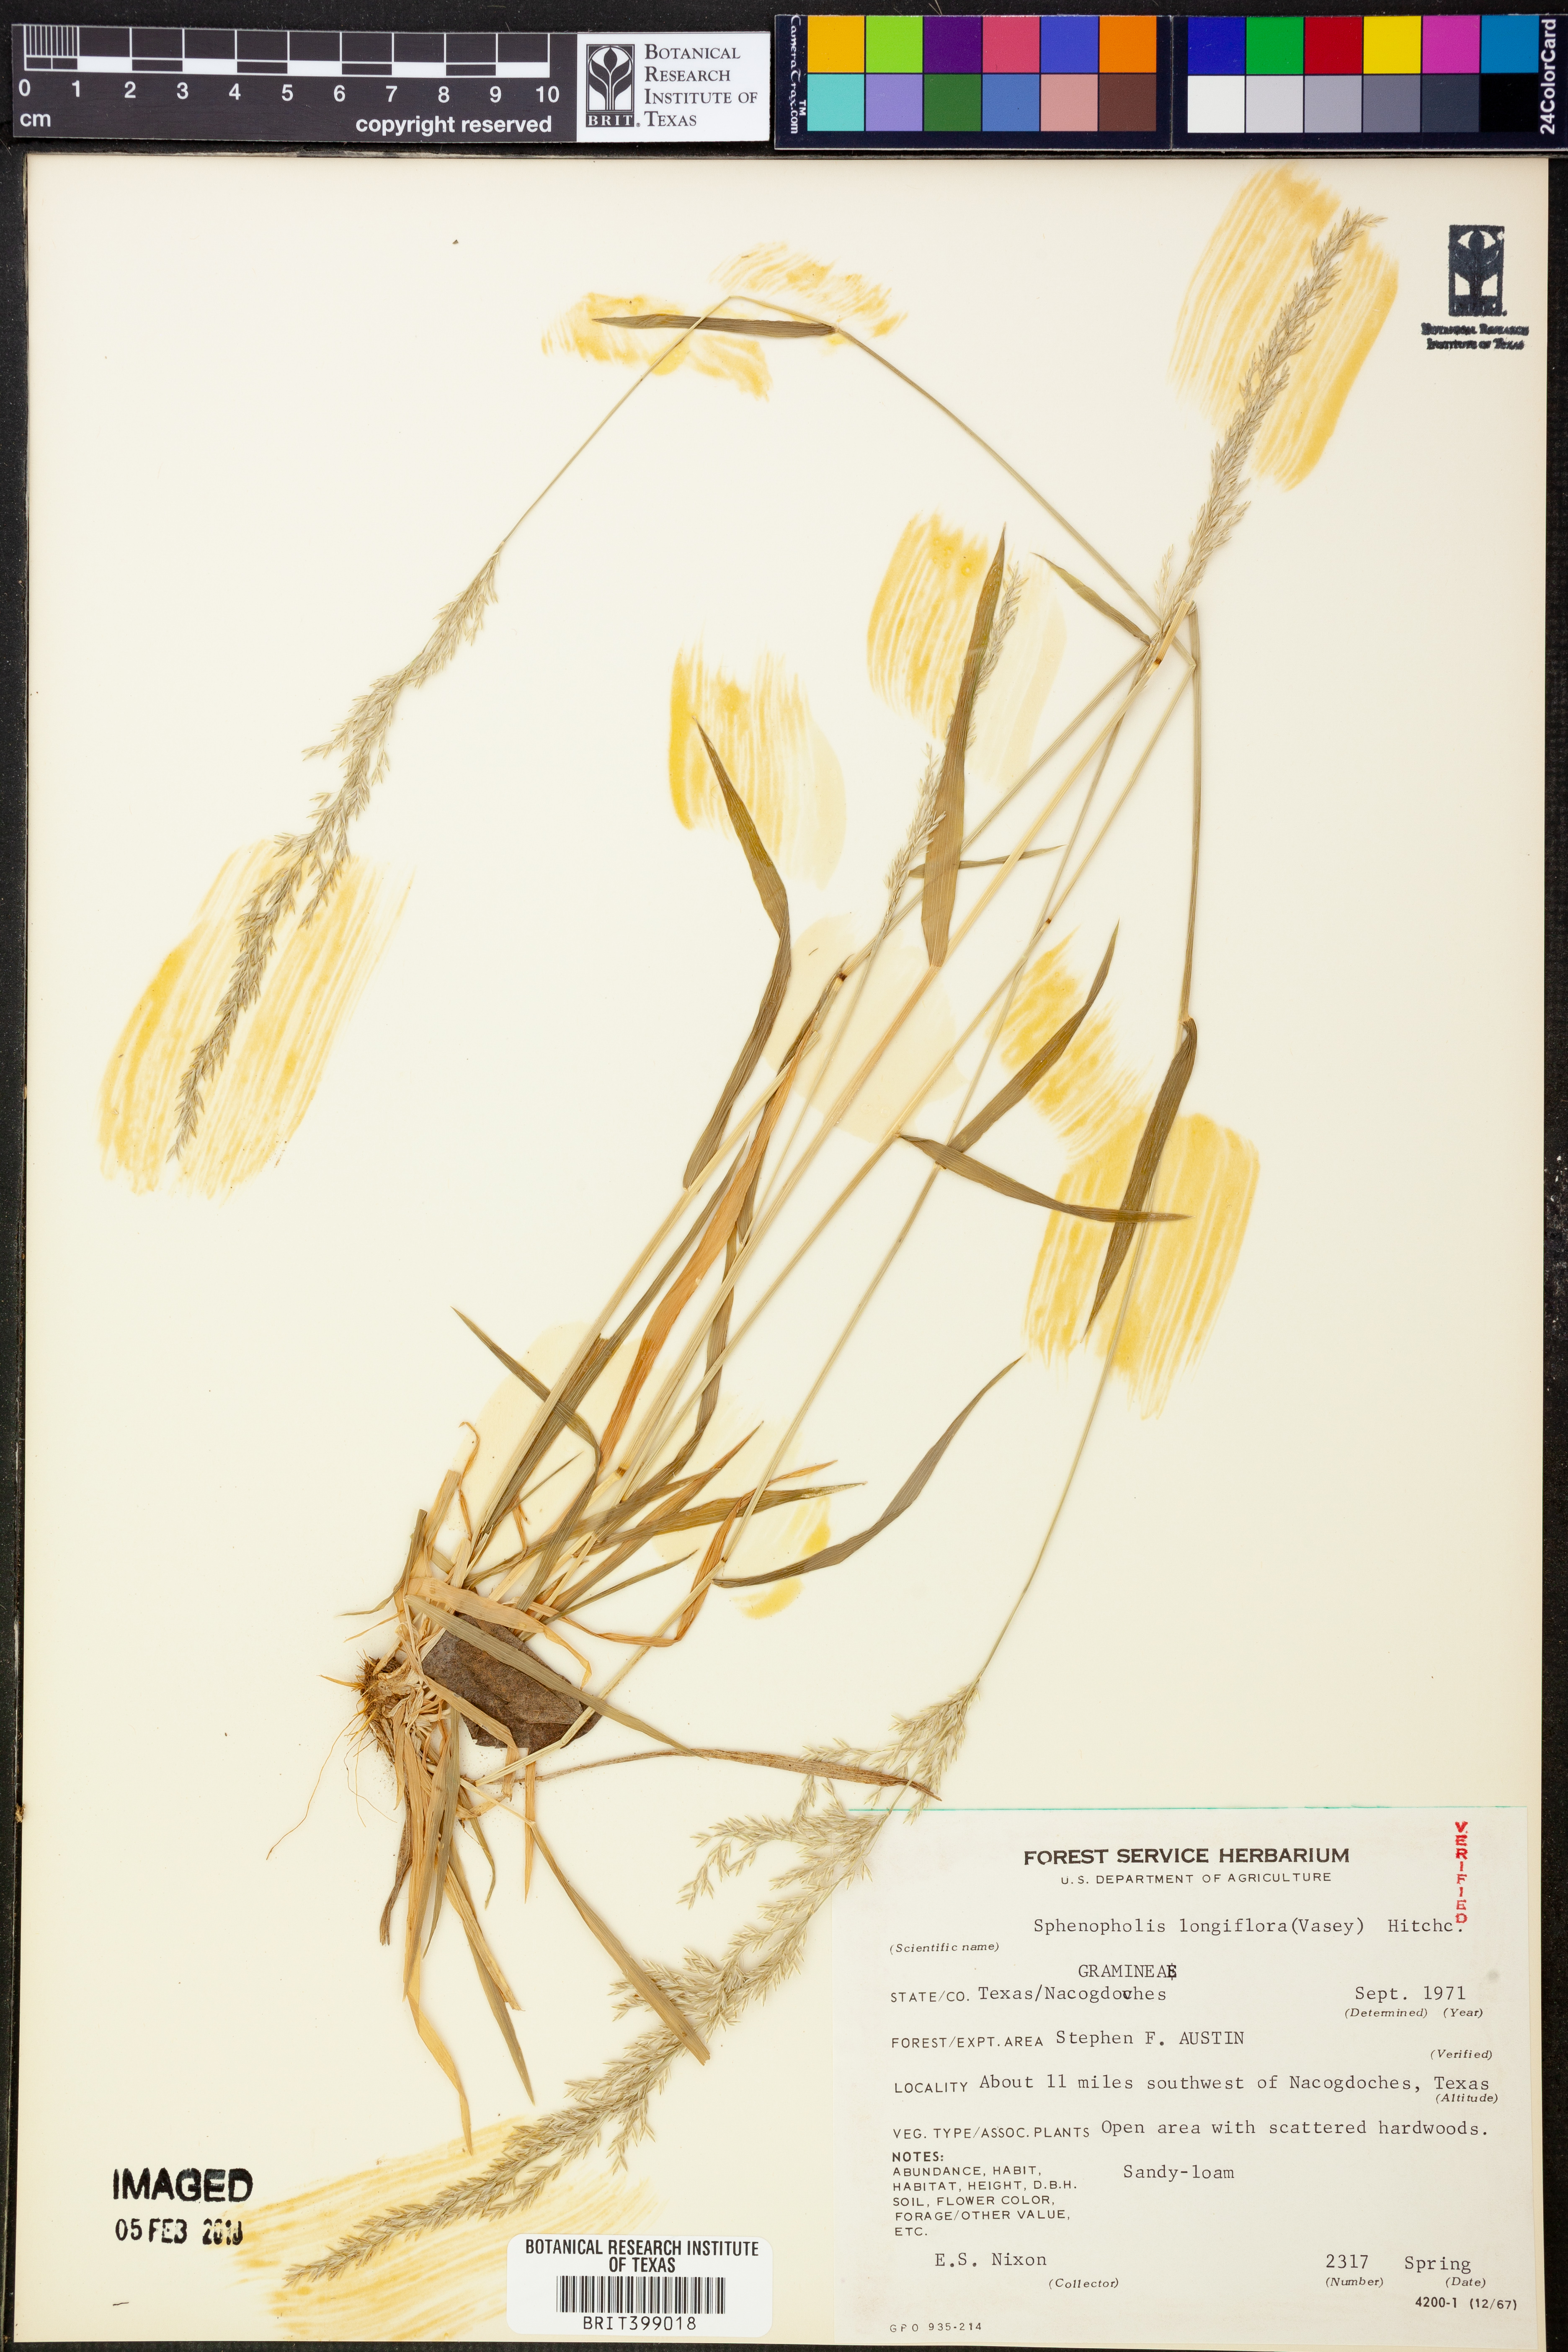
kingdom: Plantae
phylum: Tracheophyta
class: Liliopsida
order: Poales
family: Poaceae
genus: Sphenopholis
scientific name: Sphenopholis intermedia
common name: Intermediate eaton's grass
